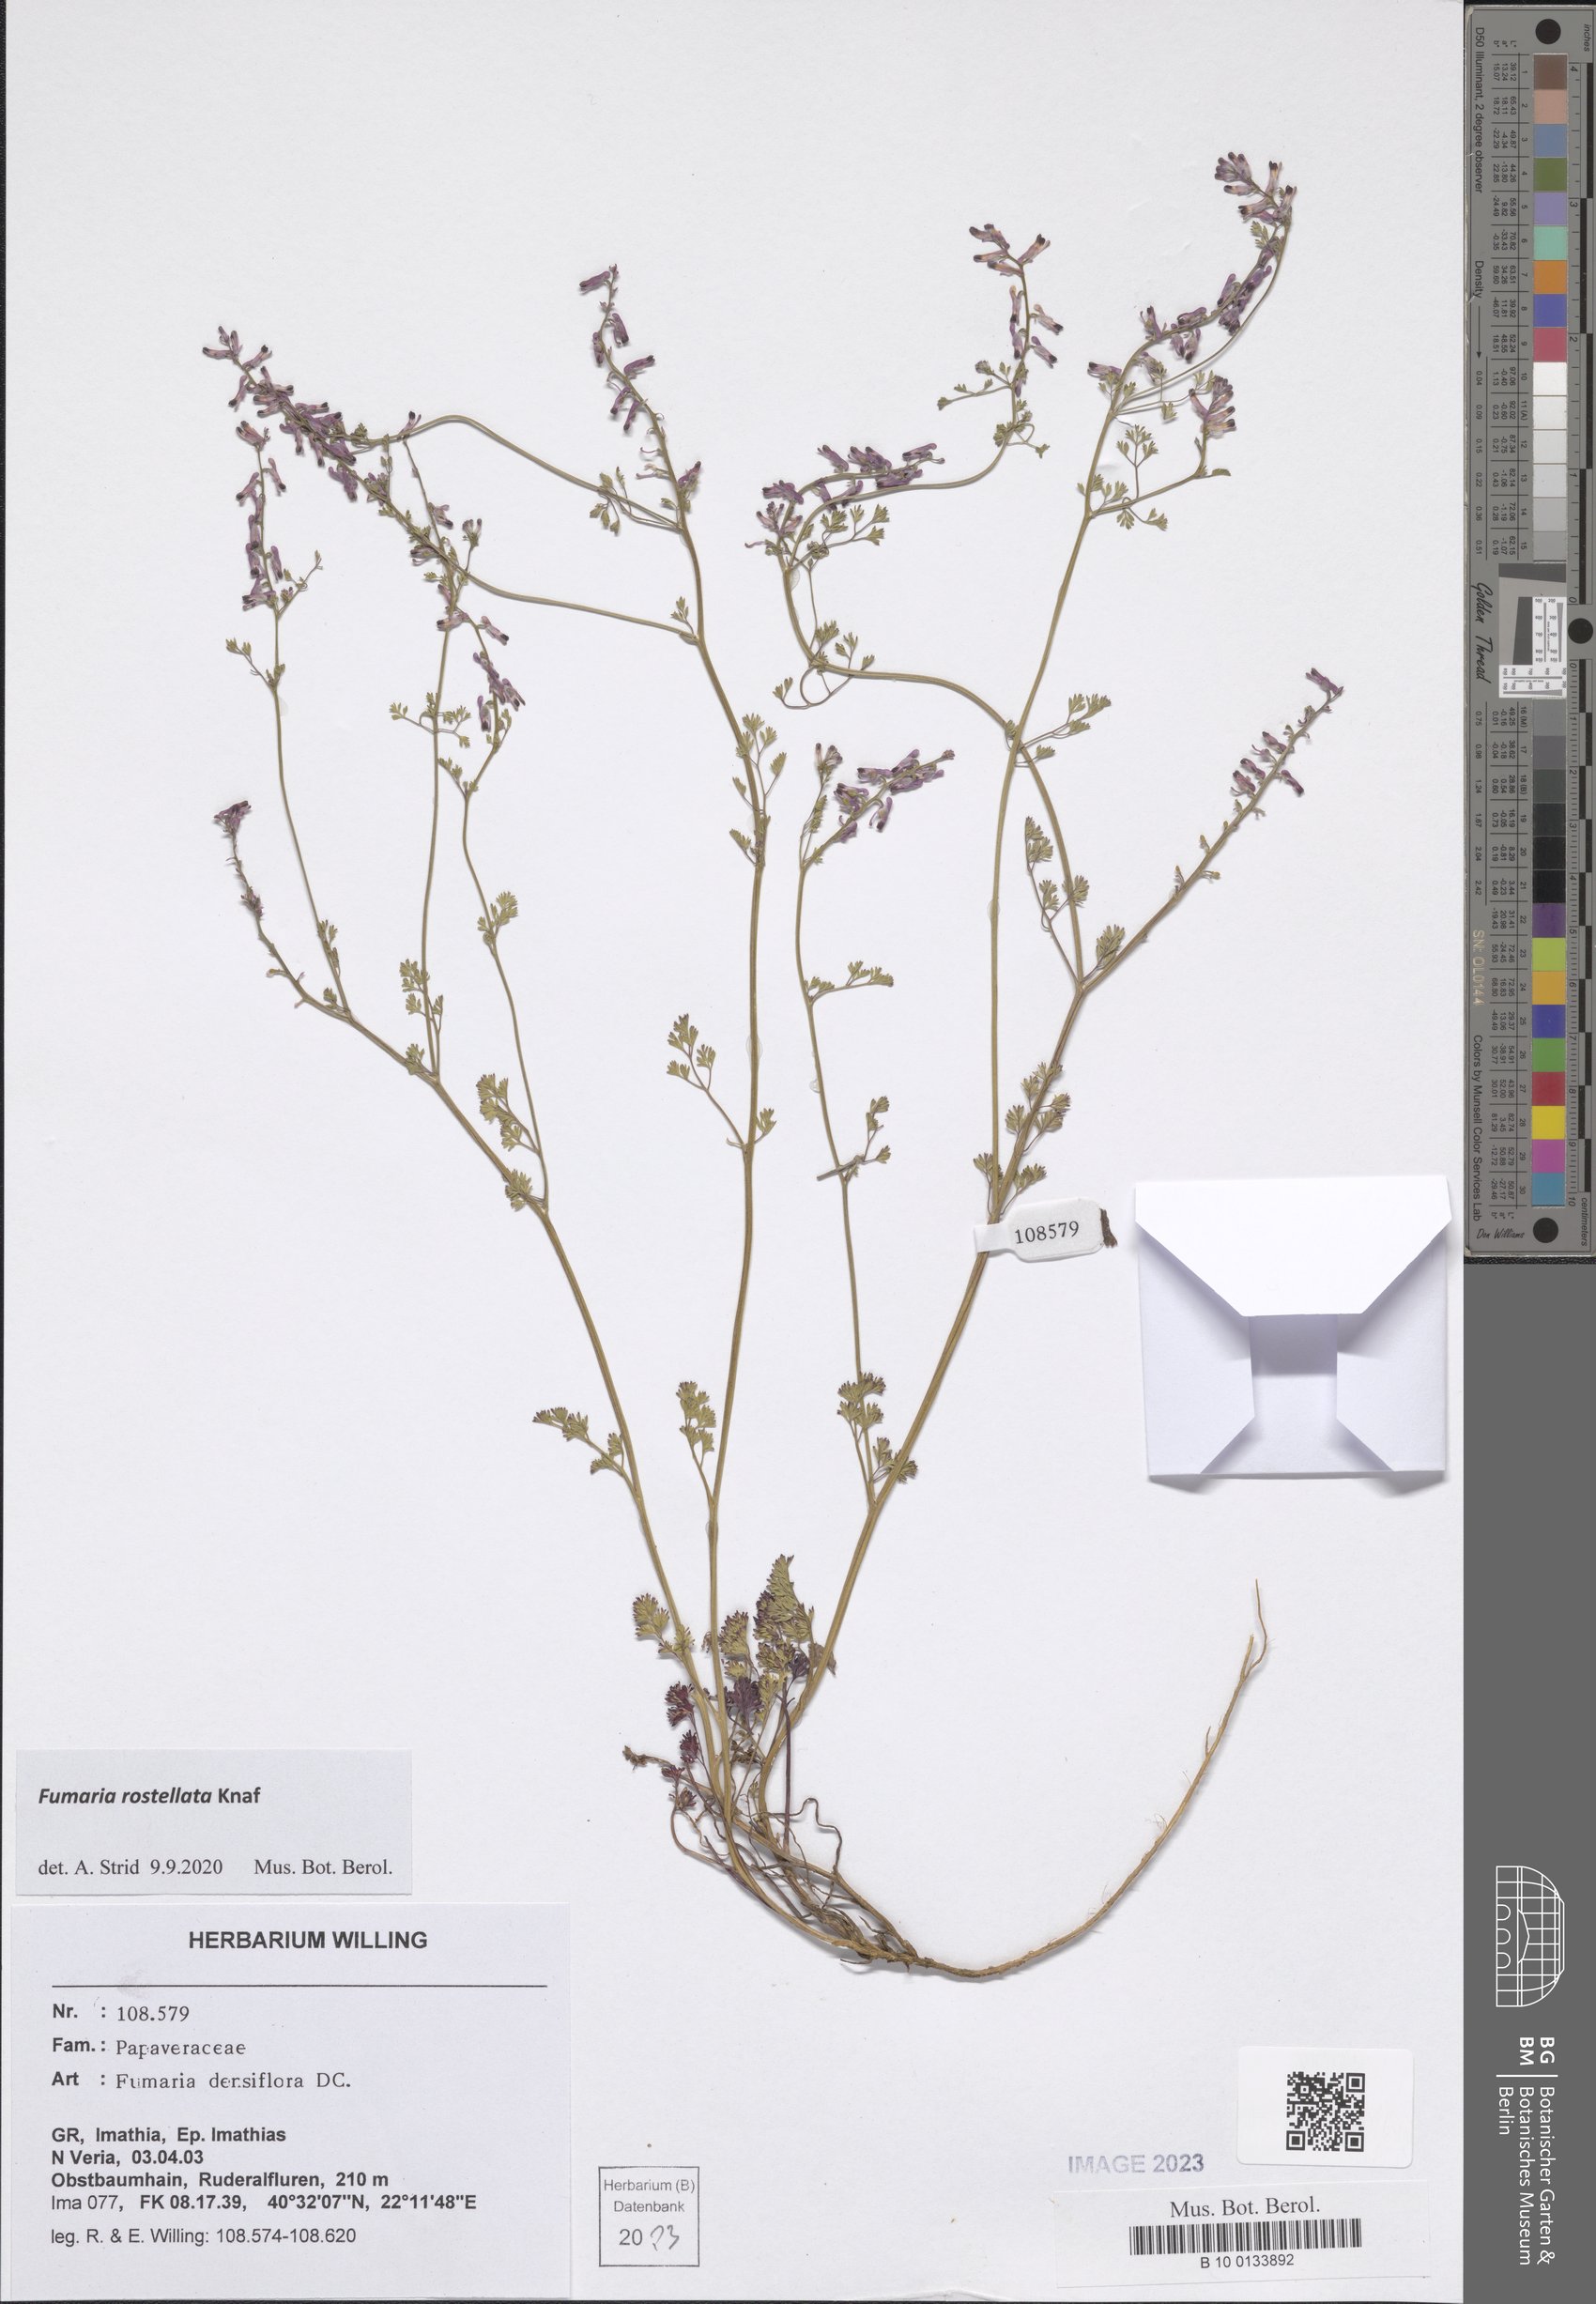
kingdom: Plantae
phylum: Tracheophyta
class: Magnoliopsida
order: Ranunculales
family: Papaveraceae
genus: Fumaria
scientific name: Fumaria rostellata
